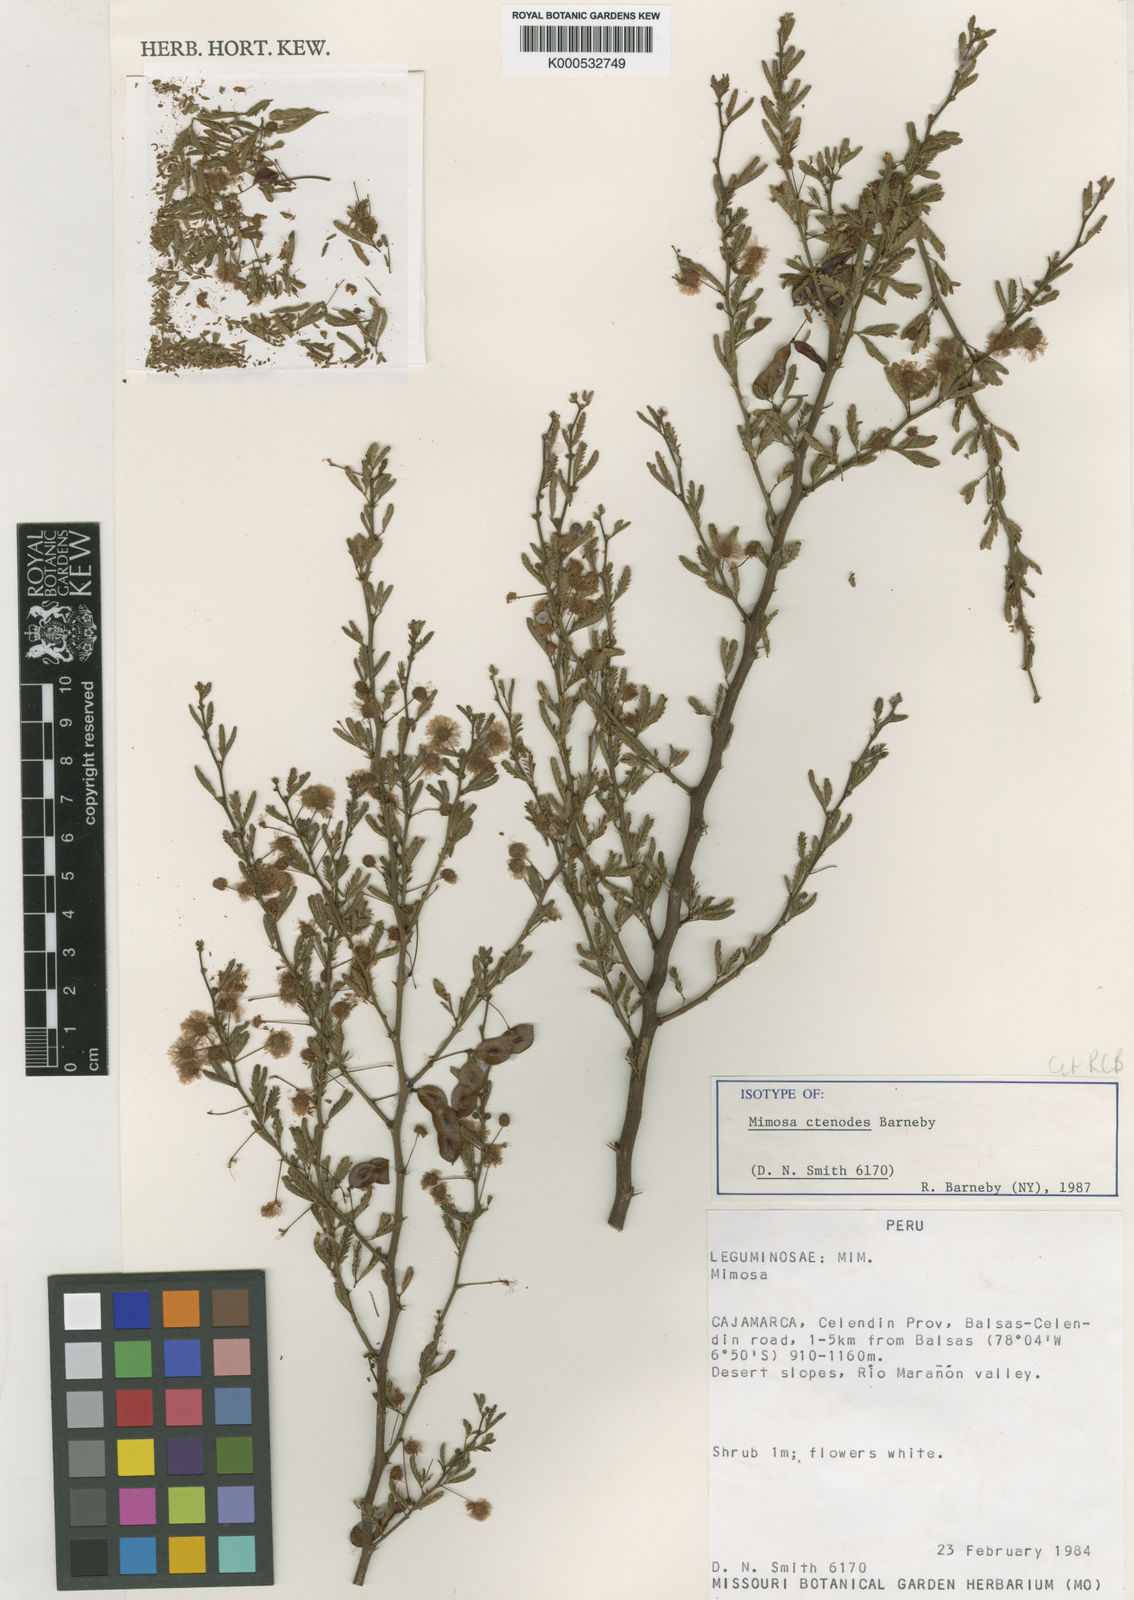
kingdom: Plantae
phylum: Tracheophyta
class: Magnoliopsida
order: Fabales
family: Fabaceae
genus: Mimosa
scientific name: Mimosa ctenodes
